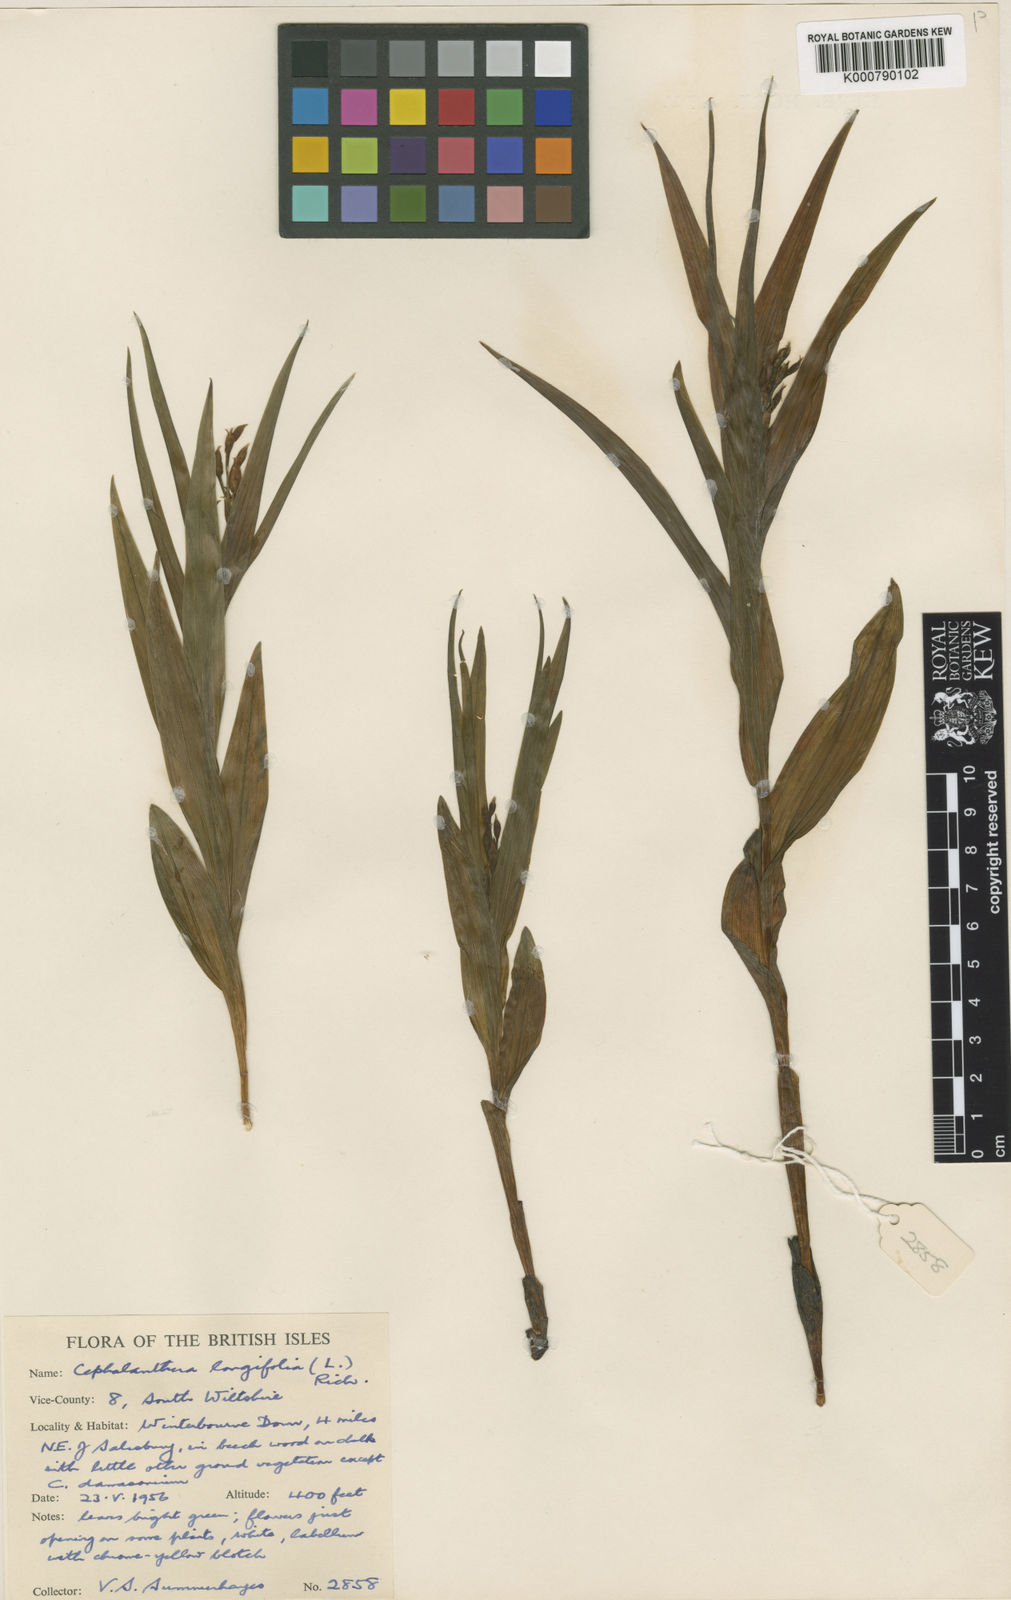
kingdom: Plantae
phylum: Tracheophyta
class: Liliopsida
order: Asparagales
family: Orchidaceae
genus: Cephalanthera
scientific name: Cephalanthera longifolia
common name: Narrow-leaved helleborine
